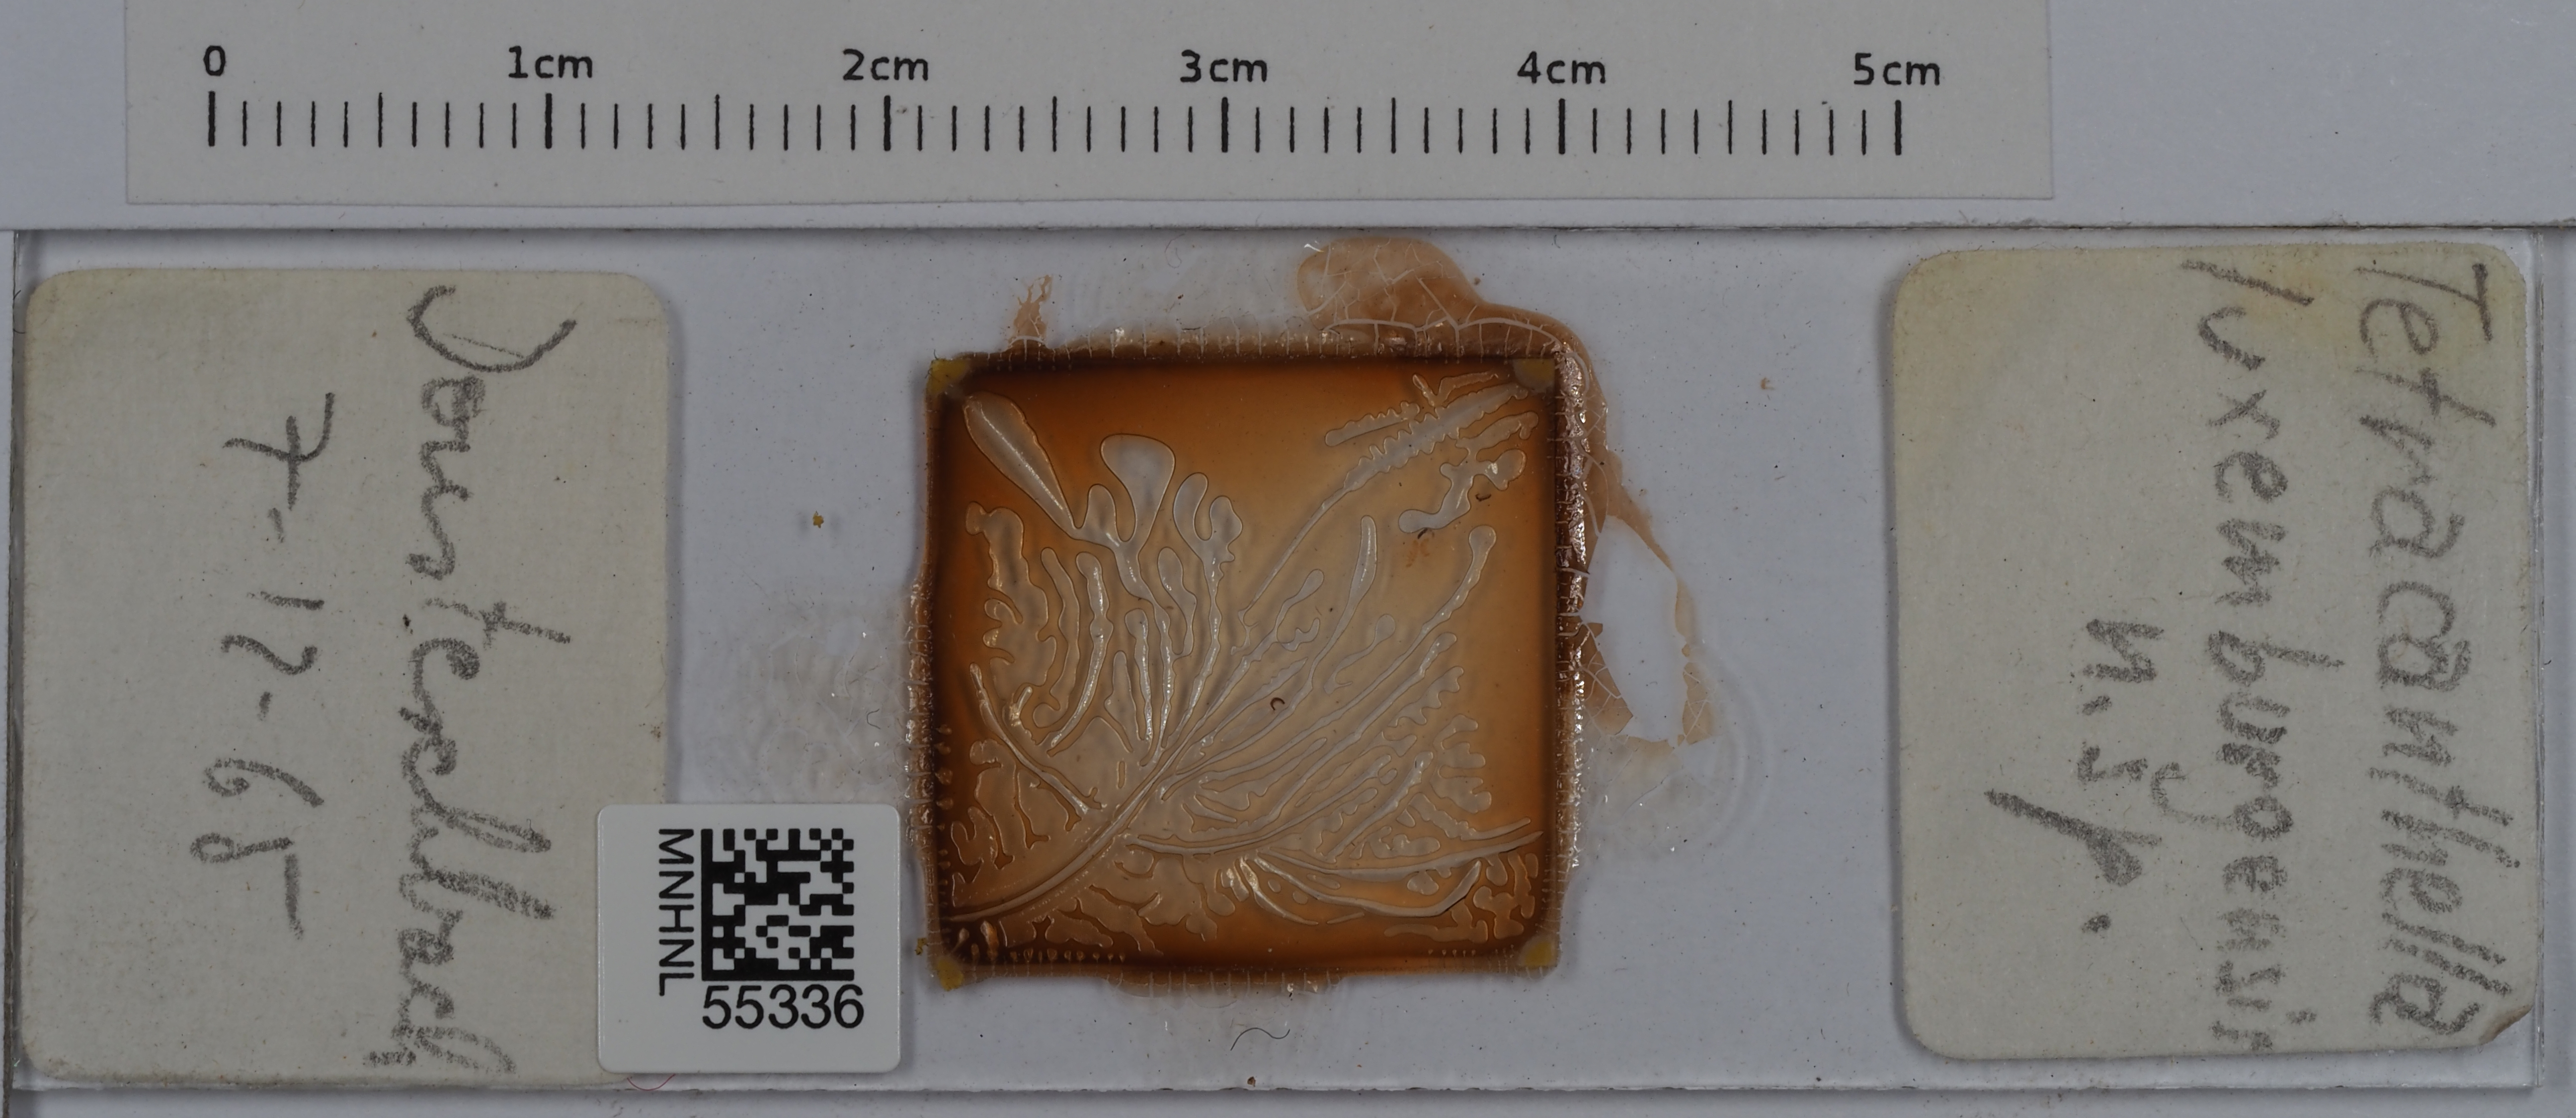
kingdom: Animalia
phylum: Arthropoda
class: Collembola
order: Entomobryomorpha
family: Isotomidae
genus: Tetracanthella
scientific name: Tetracanthella luxemburgensis
